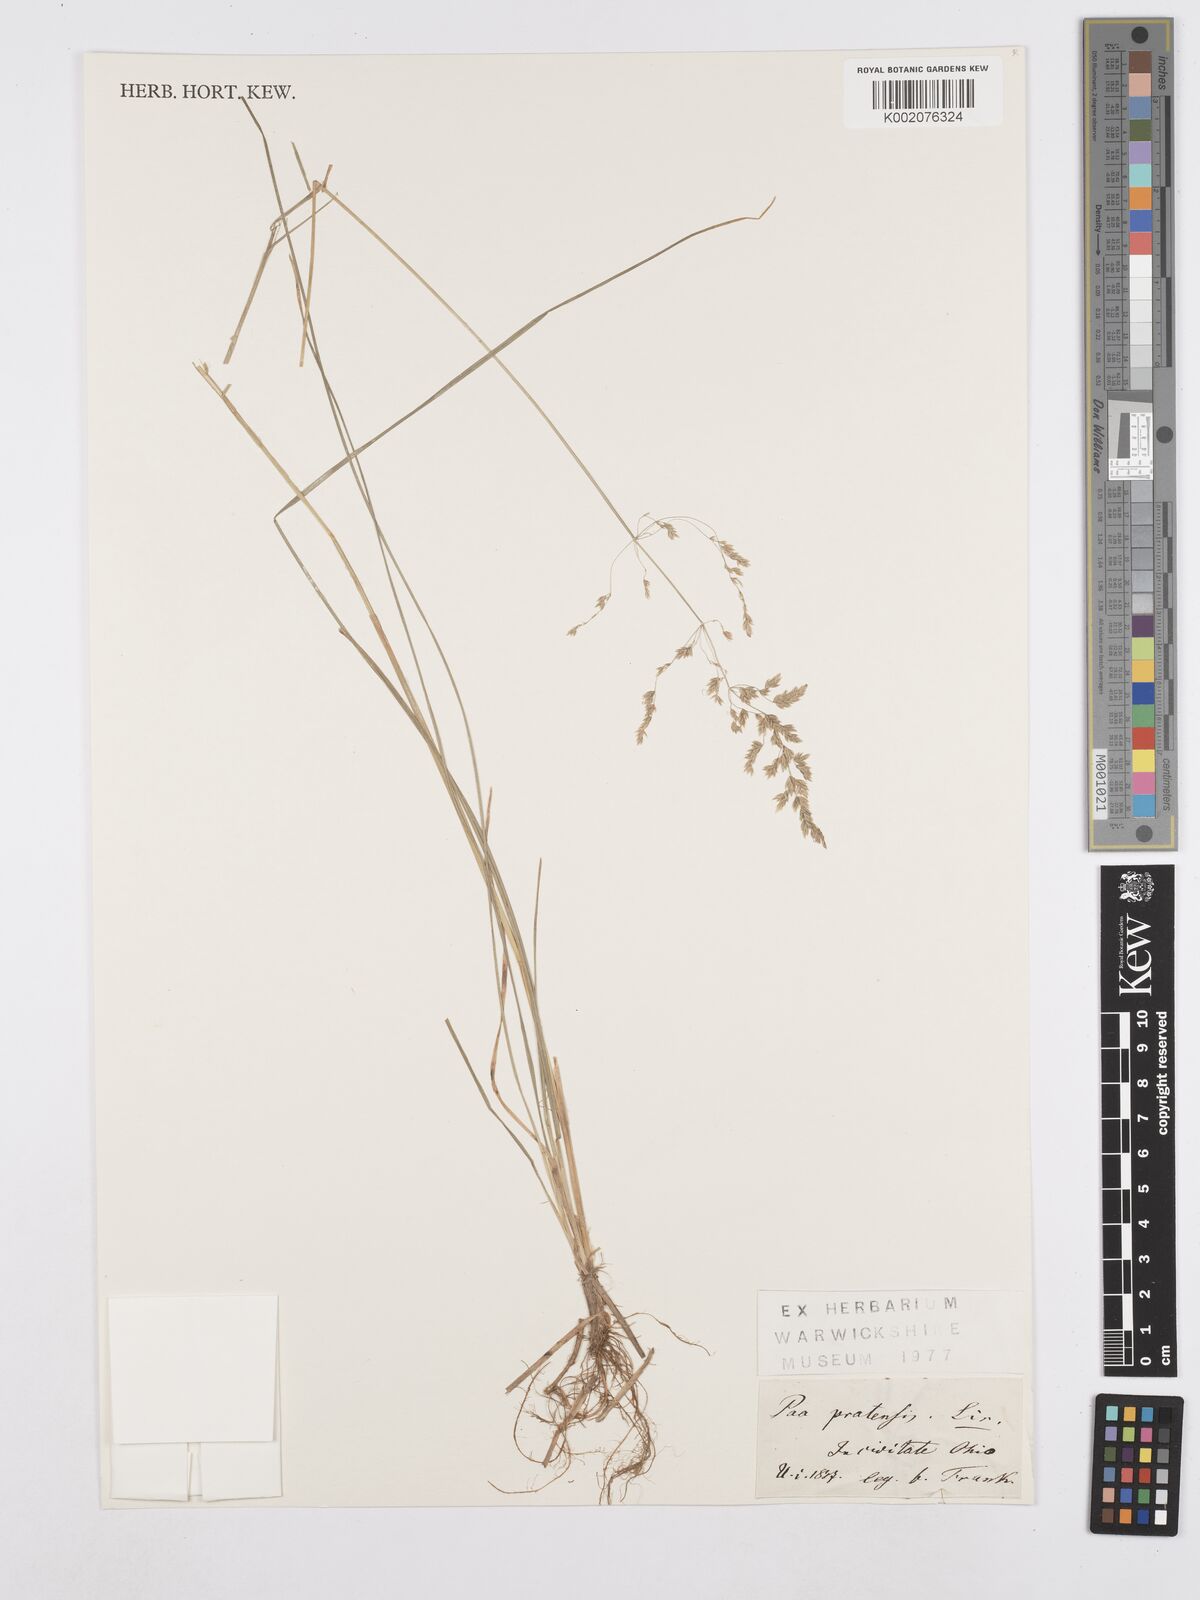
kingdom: Plantae
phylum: Tracheophyta
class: Liliopsida
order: Poales
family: Poaceae
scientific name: Poaceae
